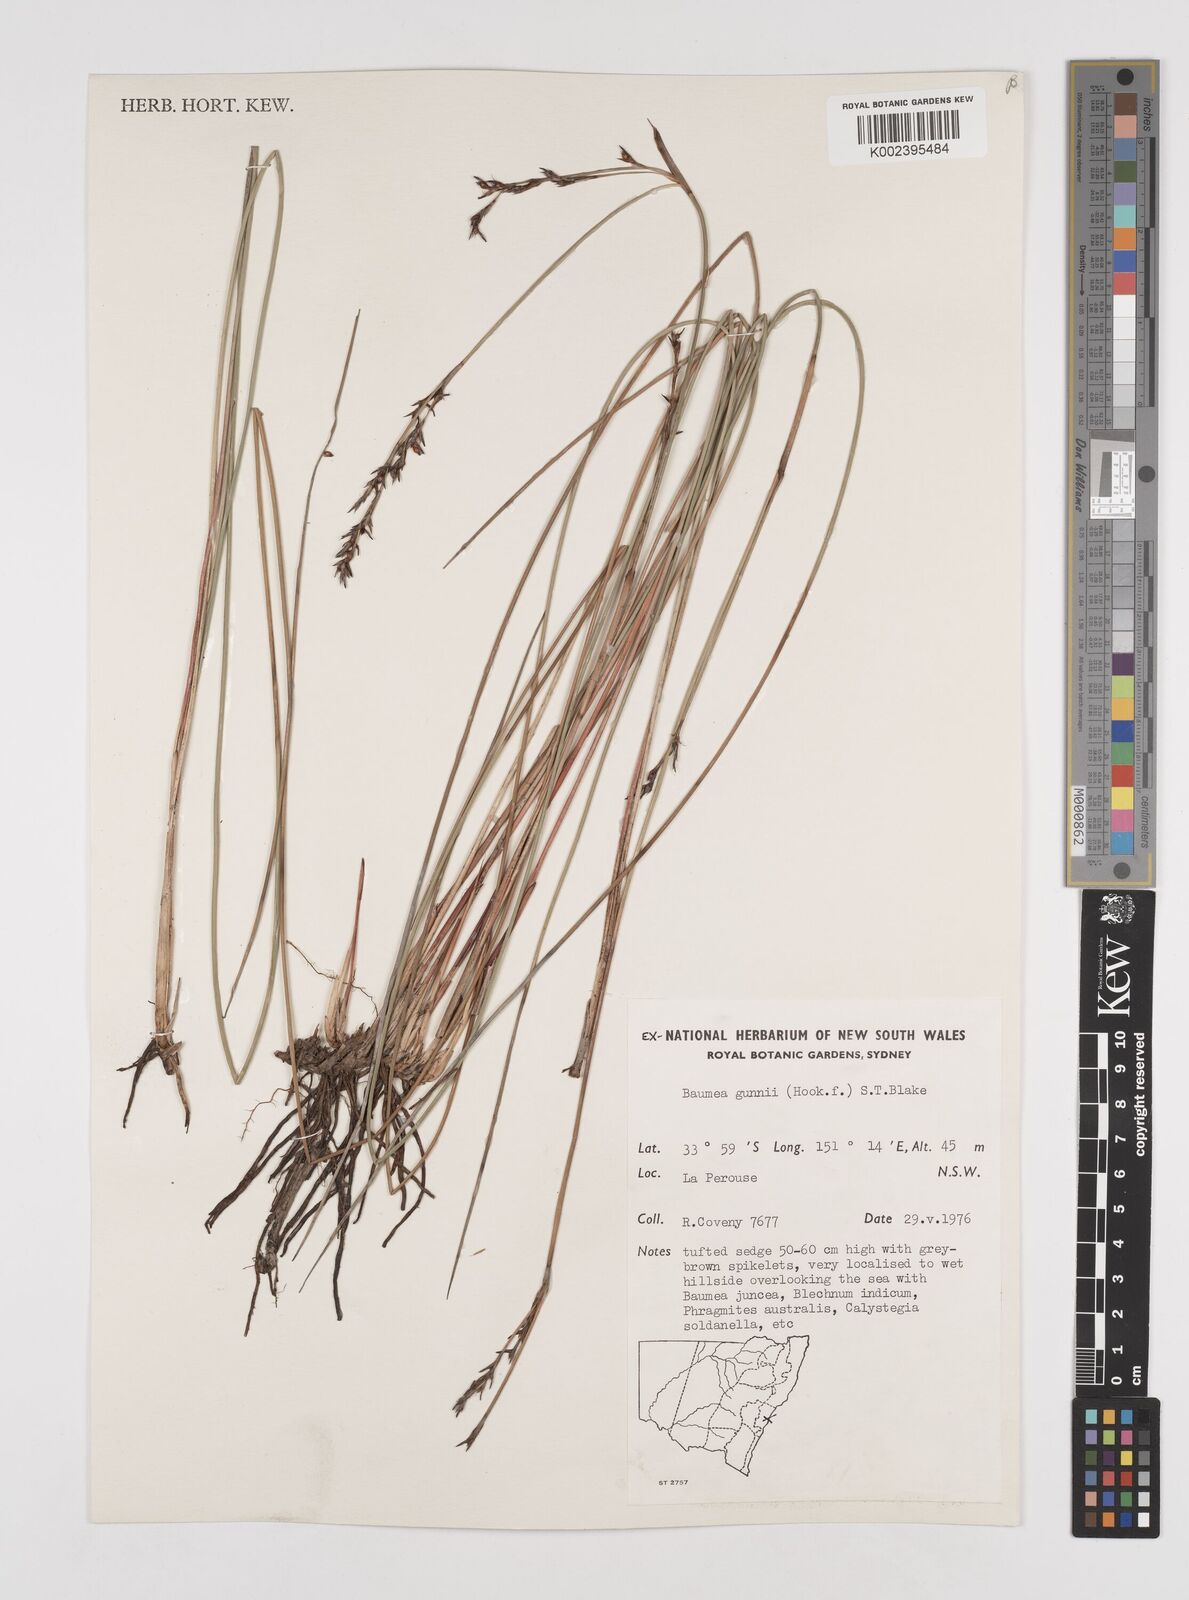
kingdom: Plantae
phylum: Tracheophyta
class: Liliopsida
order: Poales
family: Cyperaceae
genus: Machaerina
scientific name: Machaerina gunnii
